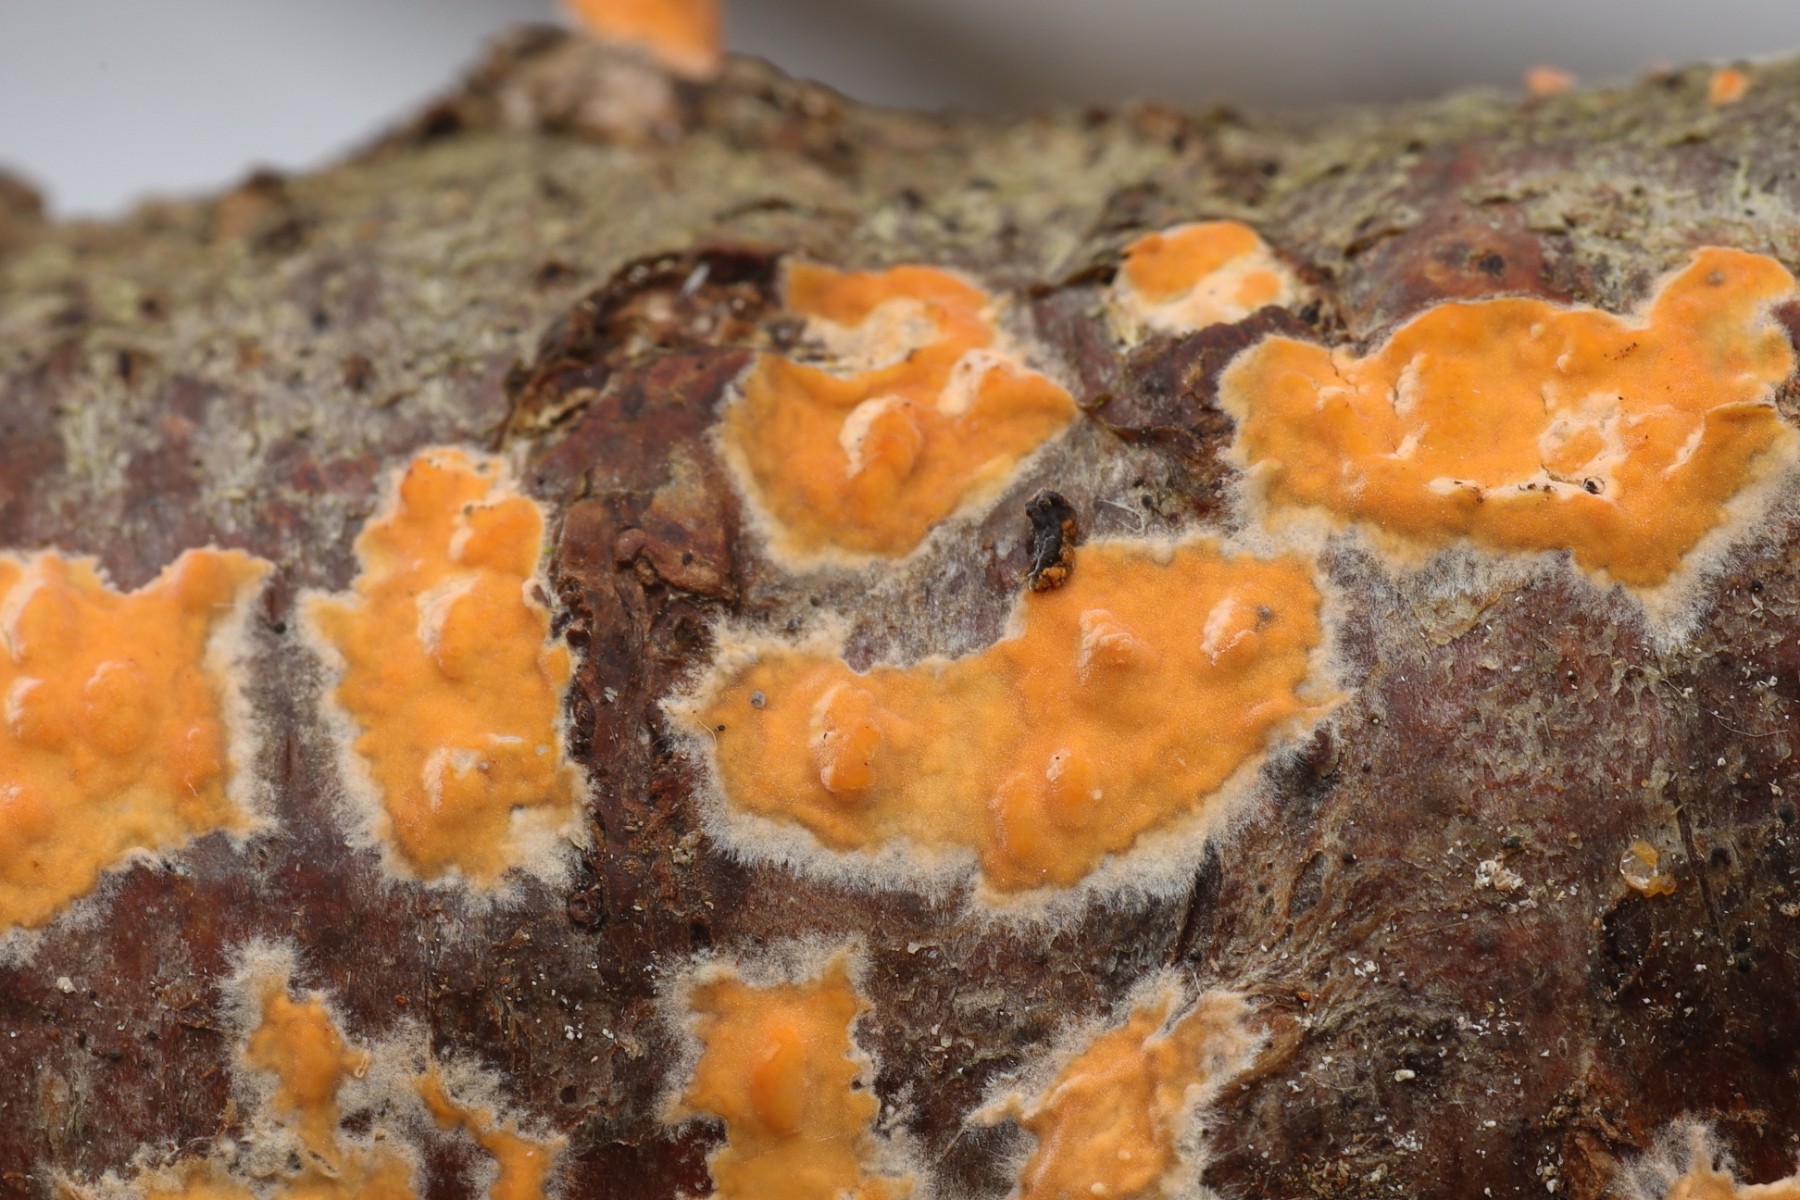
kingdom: Fungi
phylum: Basidiomycota
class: Agaricomycetes
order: Russulales
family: Peniophoraceae
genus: Peniophora
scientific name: Peniophora incarnata
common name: laksefarvet voksskind
